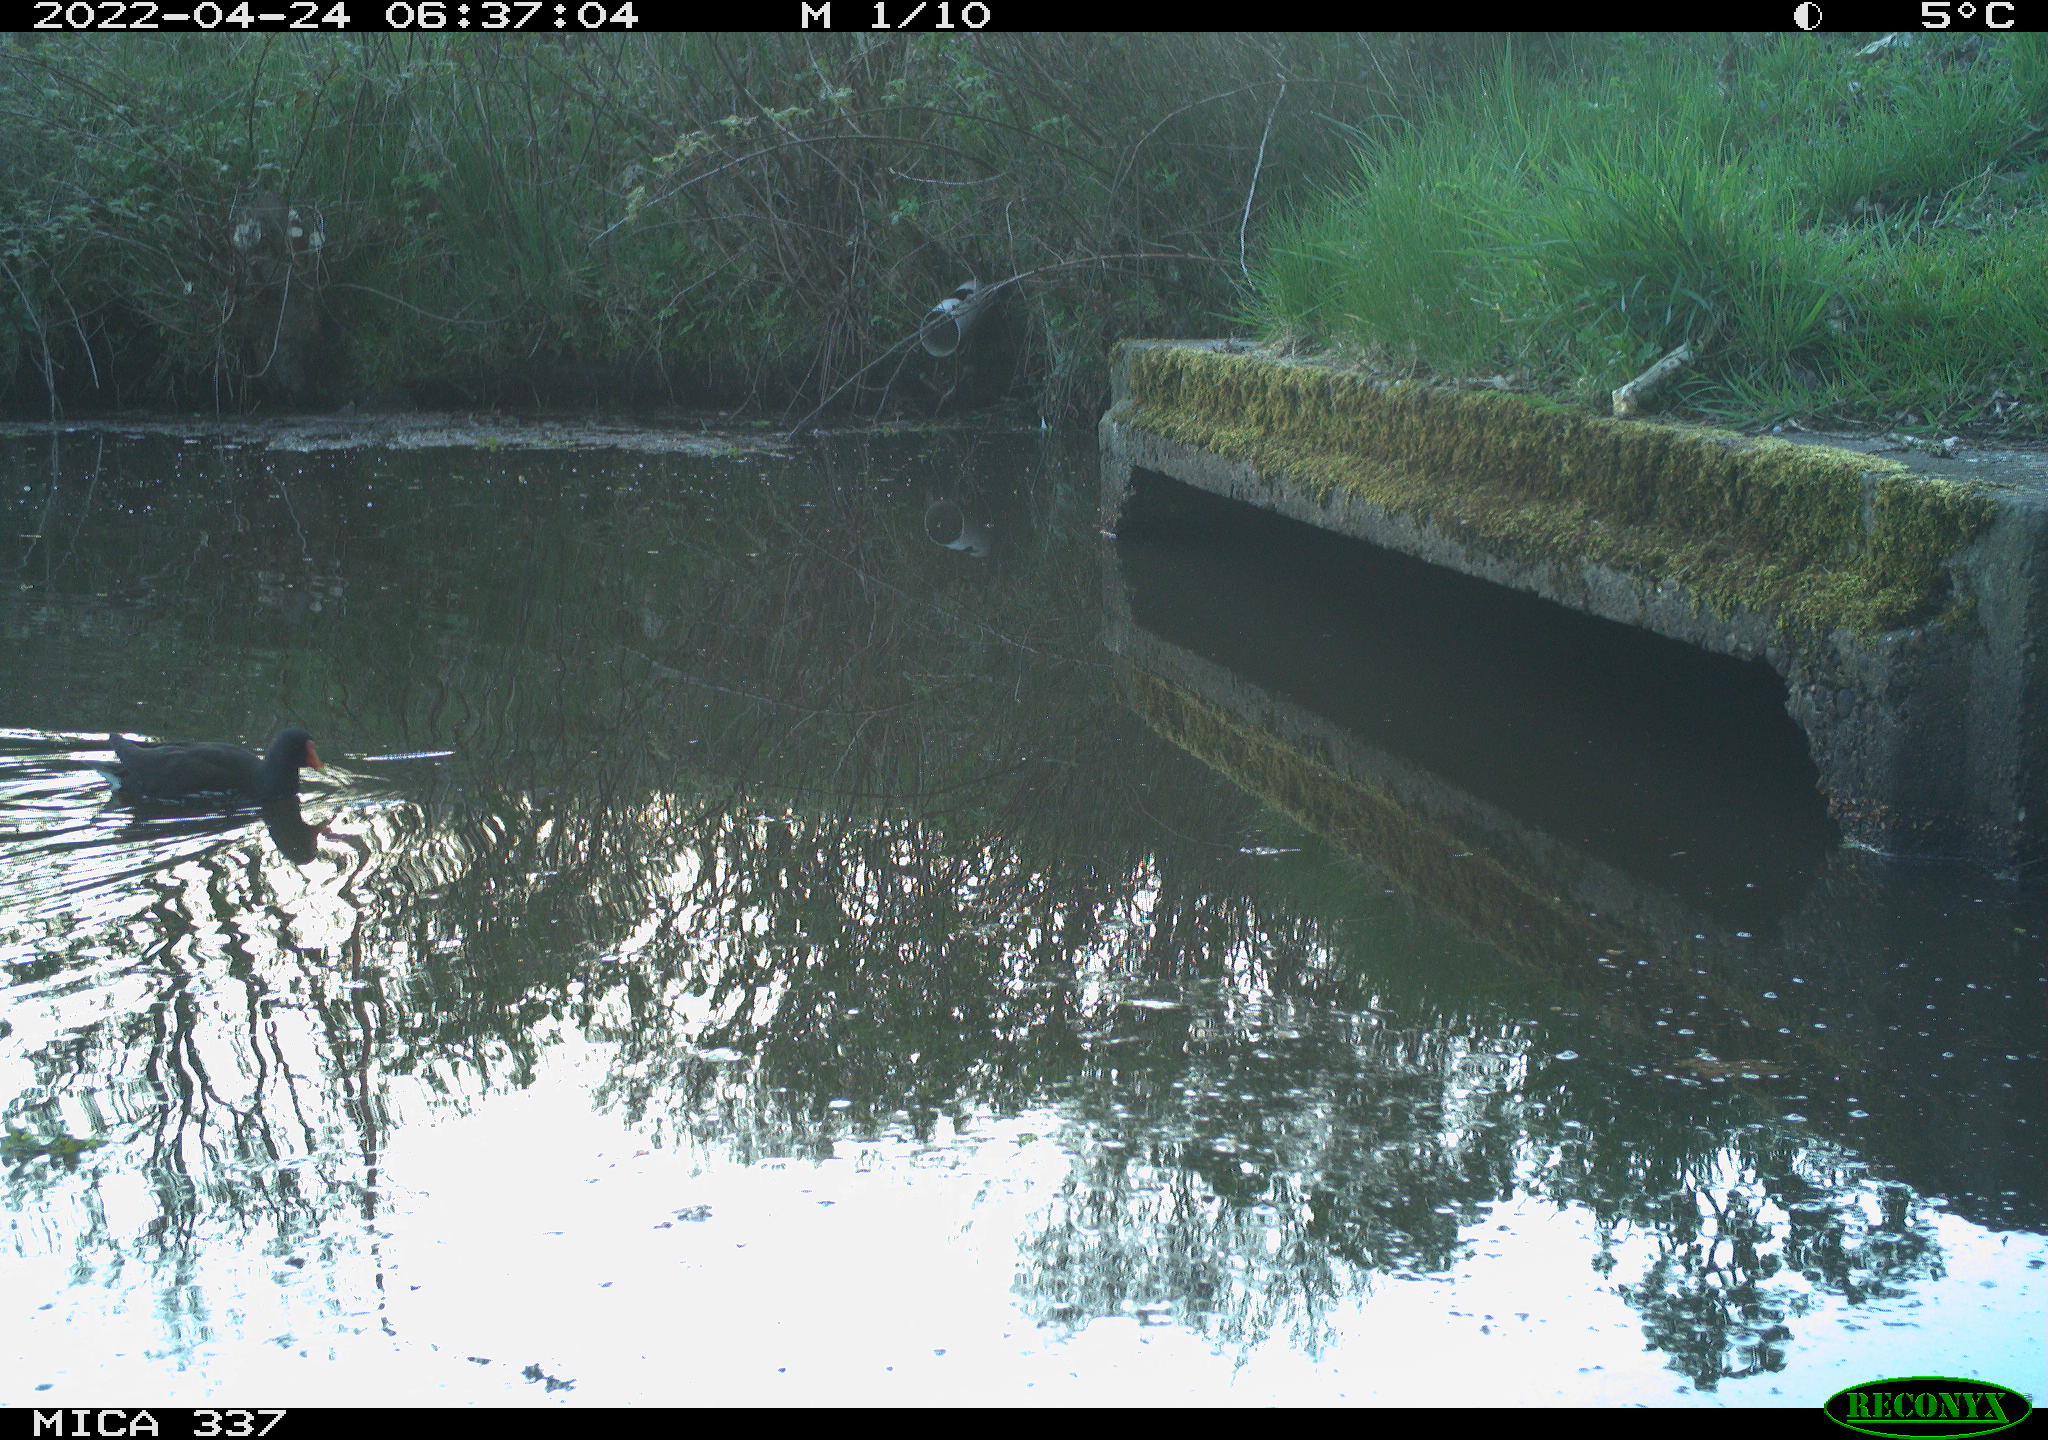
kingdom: Animalia
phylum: Chordata
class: Aves
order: Gruiformes
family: Rallidae
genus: Gallinula
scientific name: Gallinula chloropus
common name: Common moorhen
